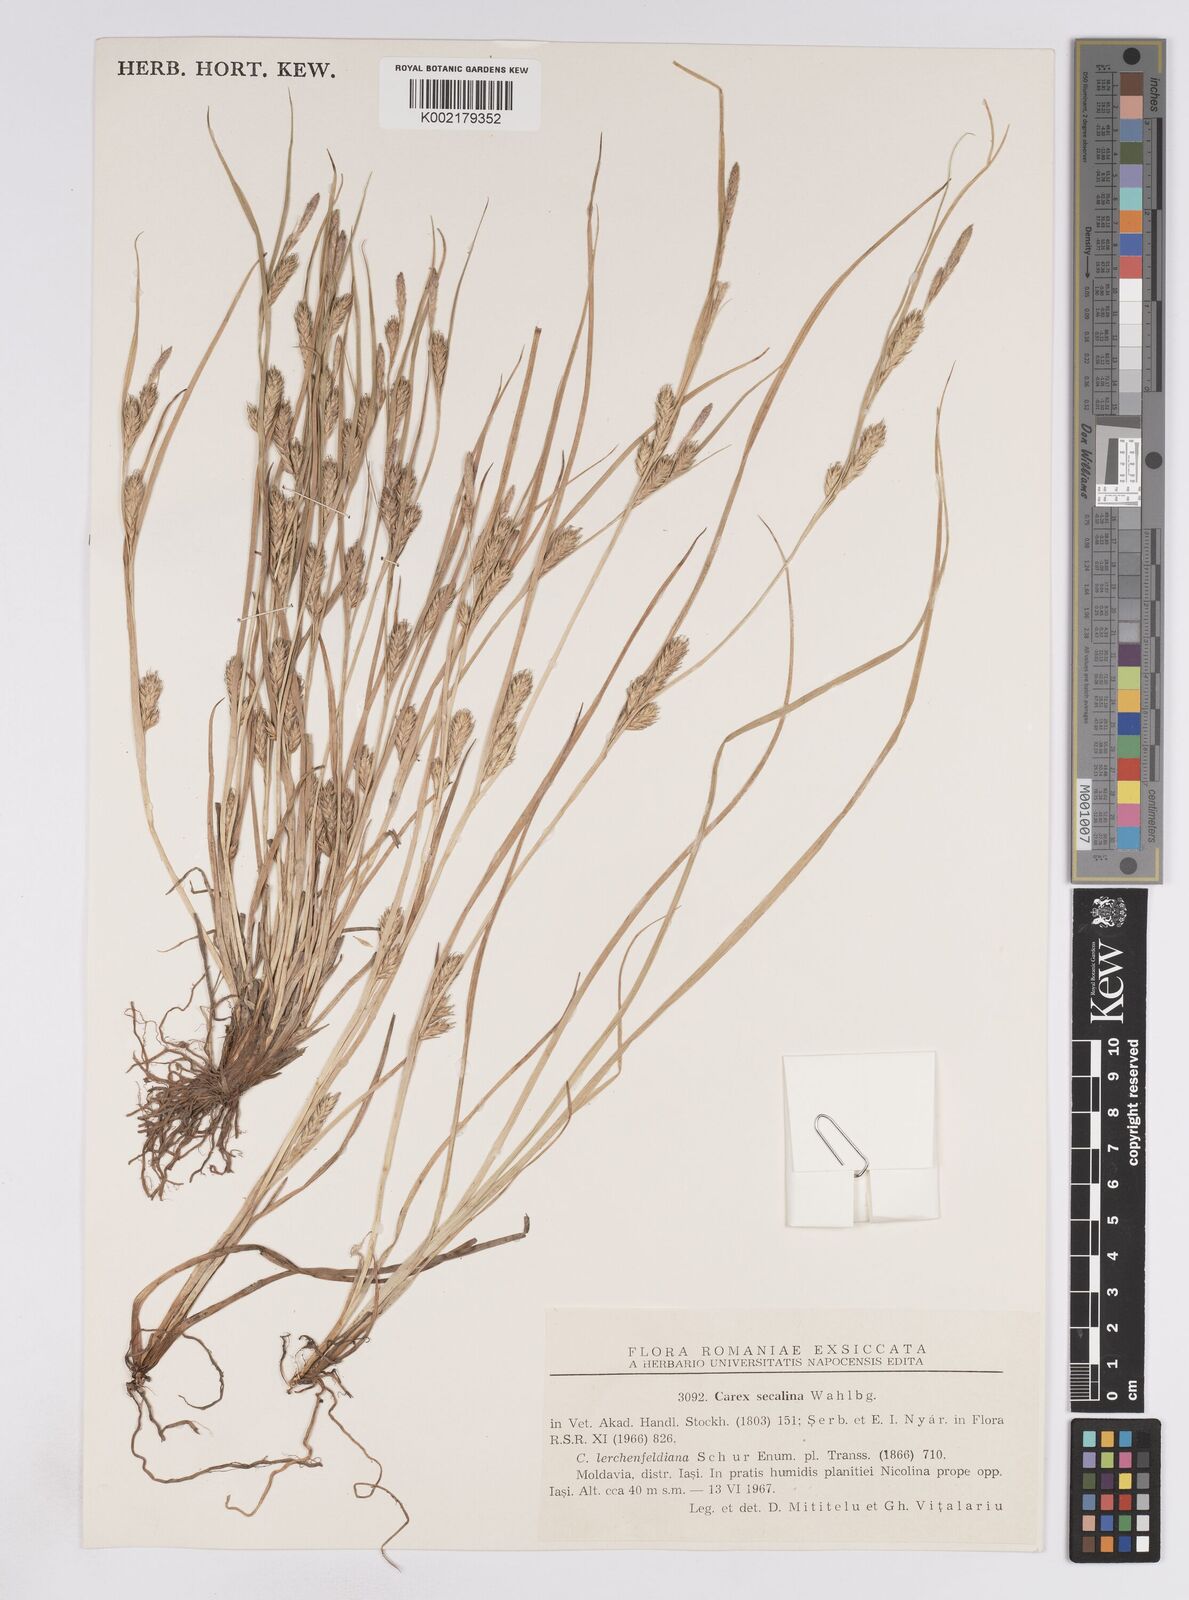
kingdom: Plantae
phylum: Tracheophyta
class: Liliopsida
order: Poales
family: Cyperaceae
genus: Carex
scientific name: Carex secalina
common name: Rye sedge
